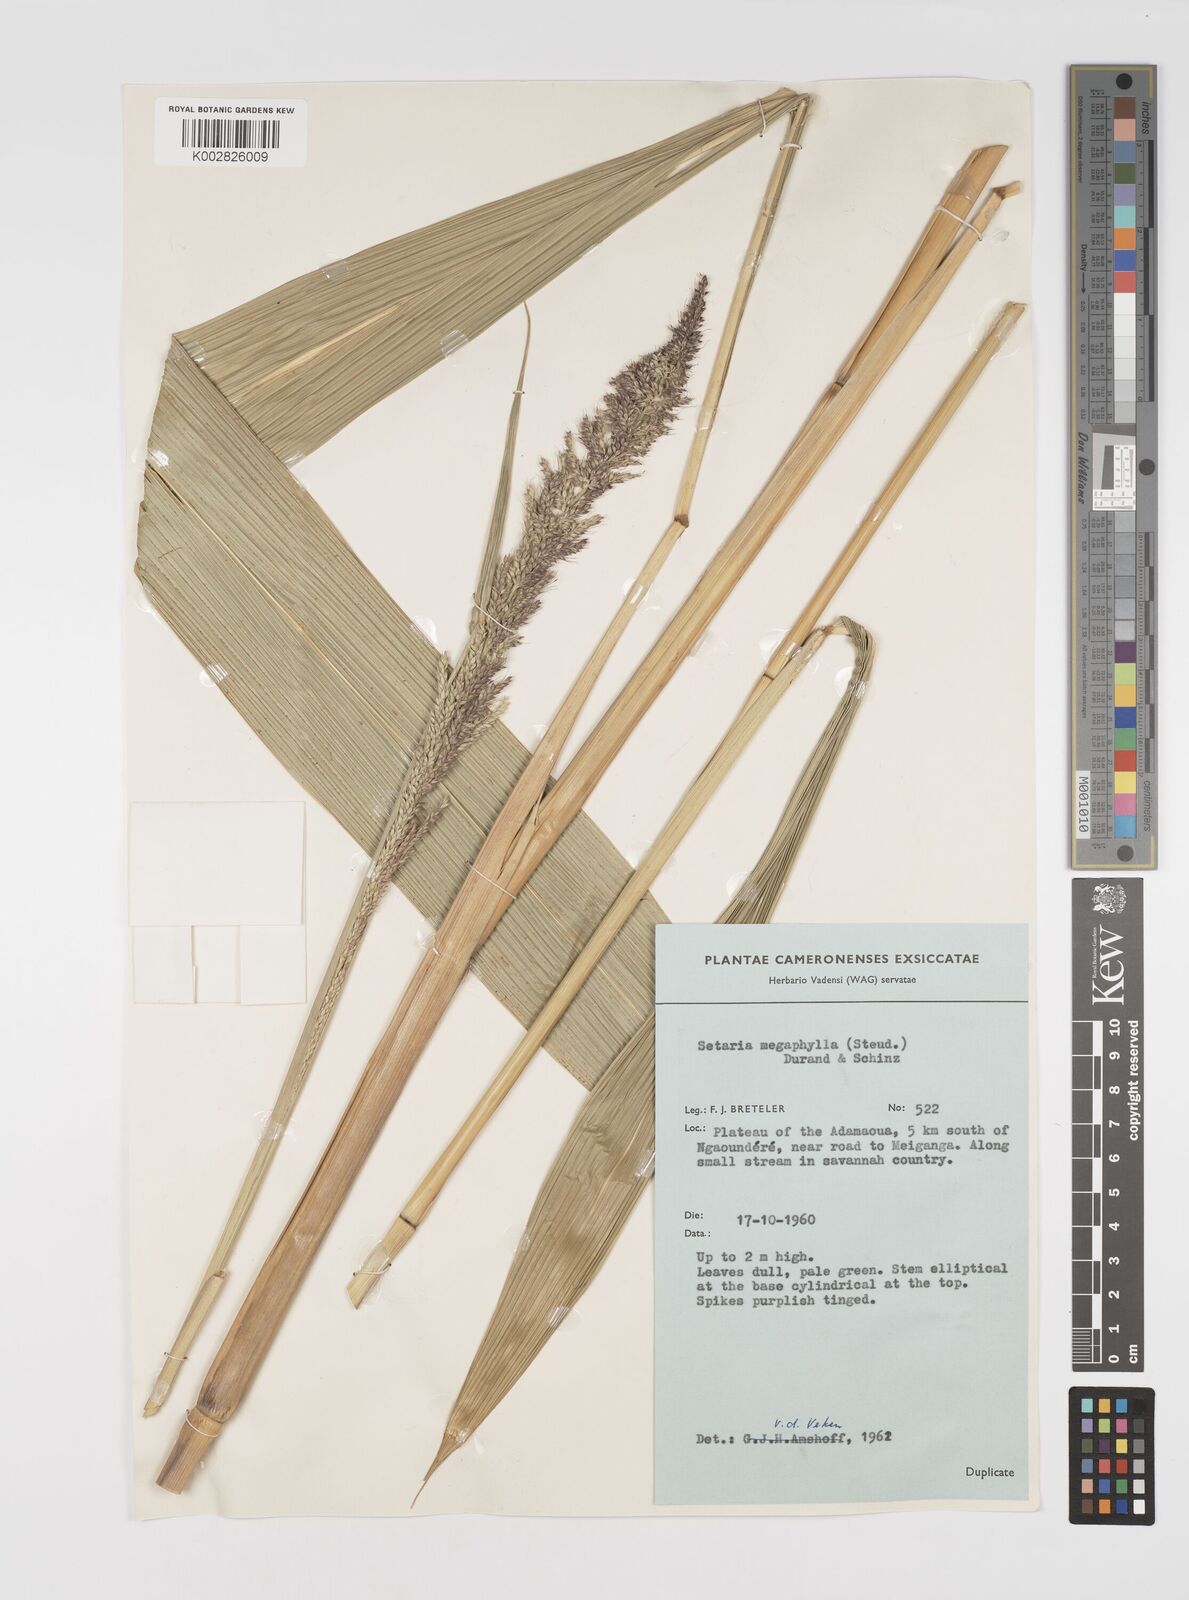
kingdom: Plantae
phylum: Tracheophyta
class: Liliopsida
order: Poales
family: Poaceae
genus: Setaria
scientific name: Setaria megaphylla
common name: Bigleaf bristlegrass
